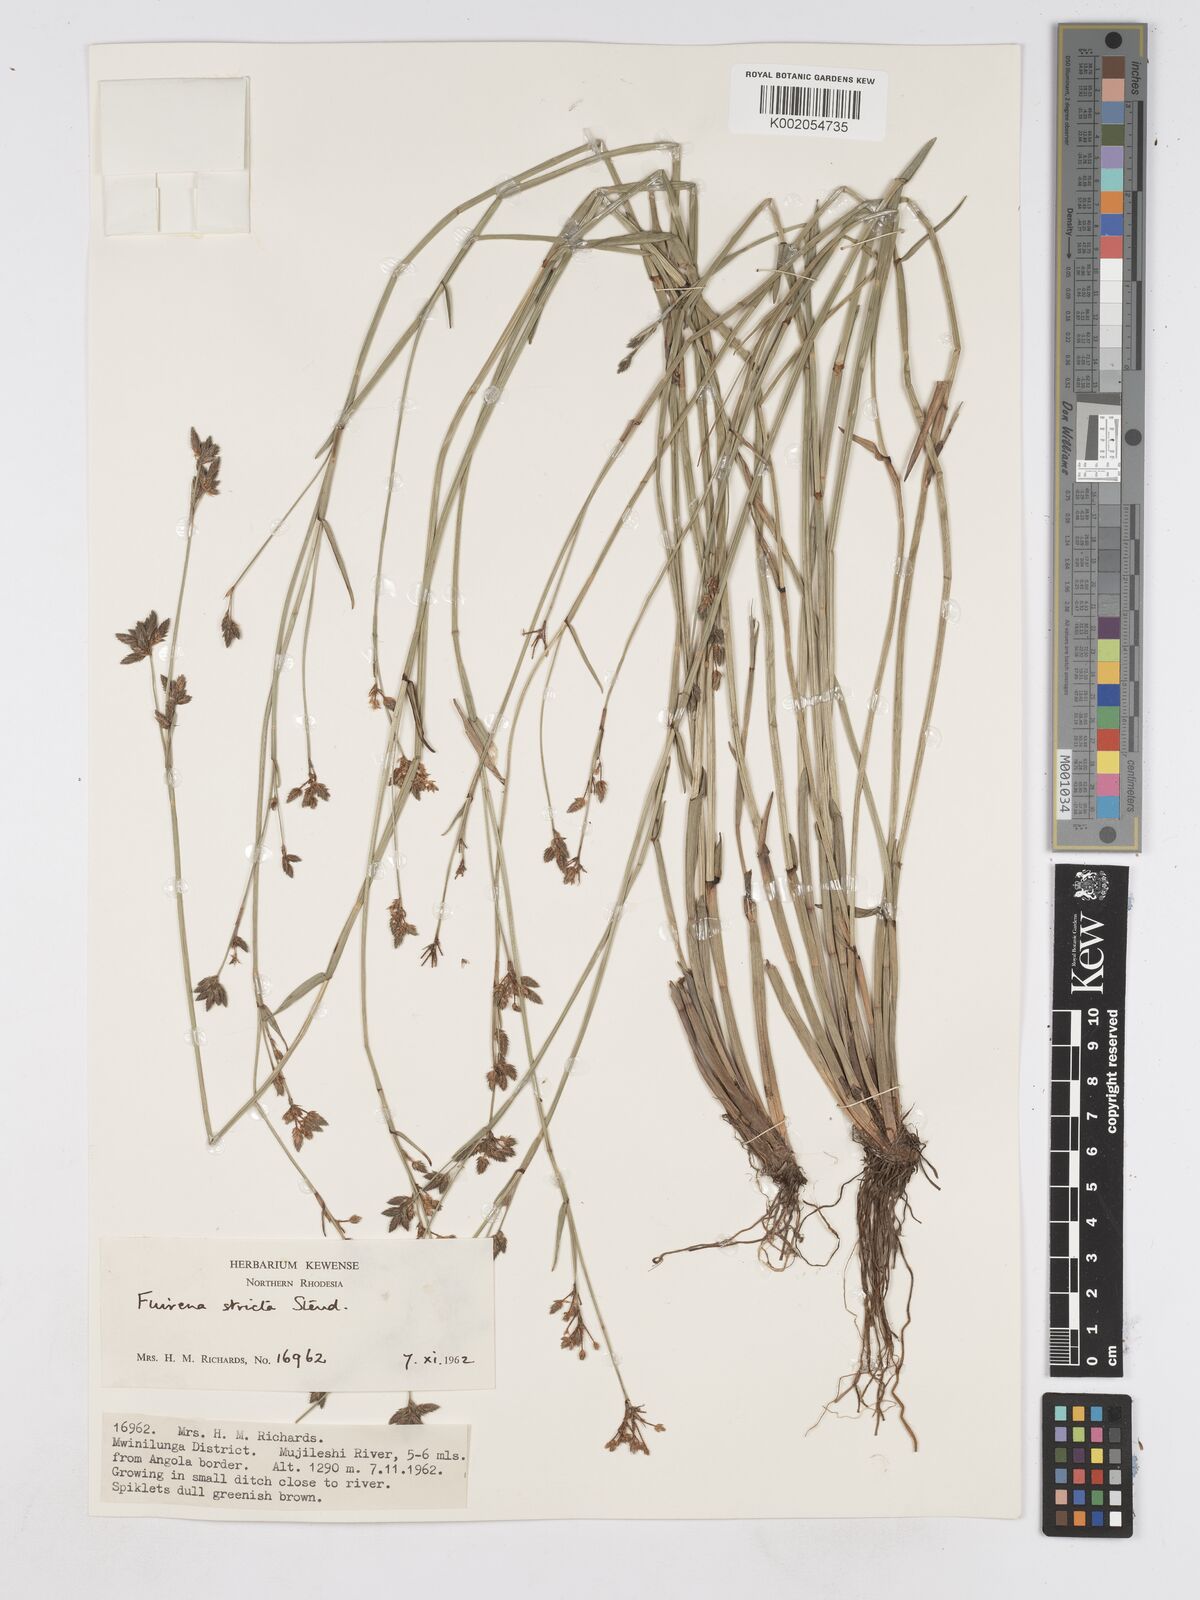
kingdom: Plantae
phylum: Tracheophyta
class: Liliopsida
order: Poales
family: Cyperaceae
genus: Fuirena
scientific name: Fuirena stricta
